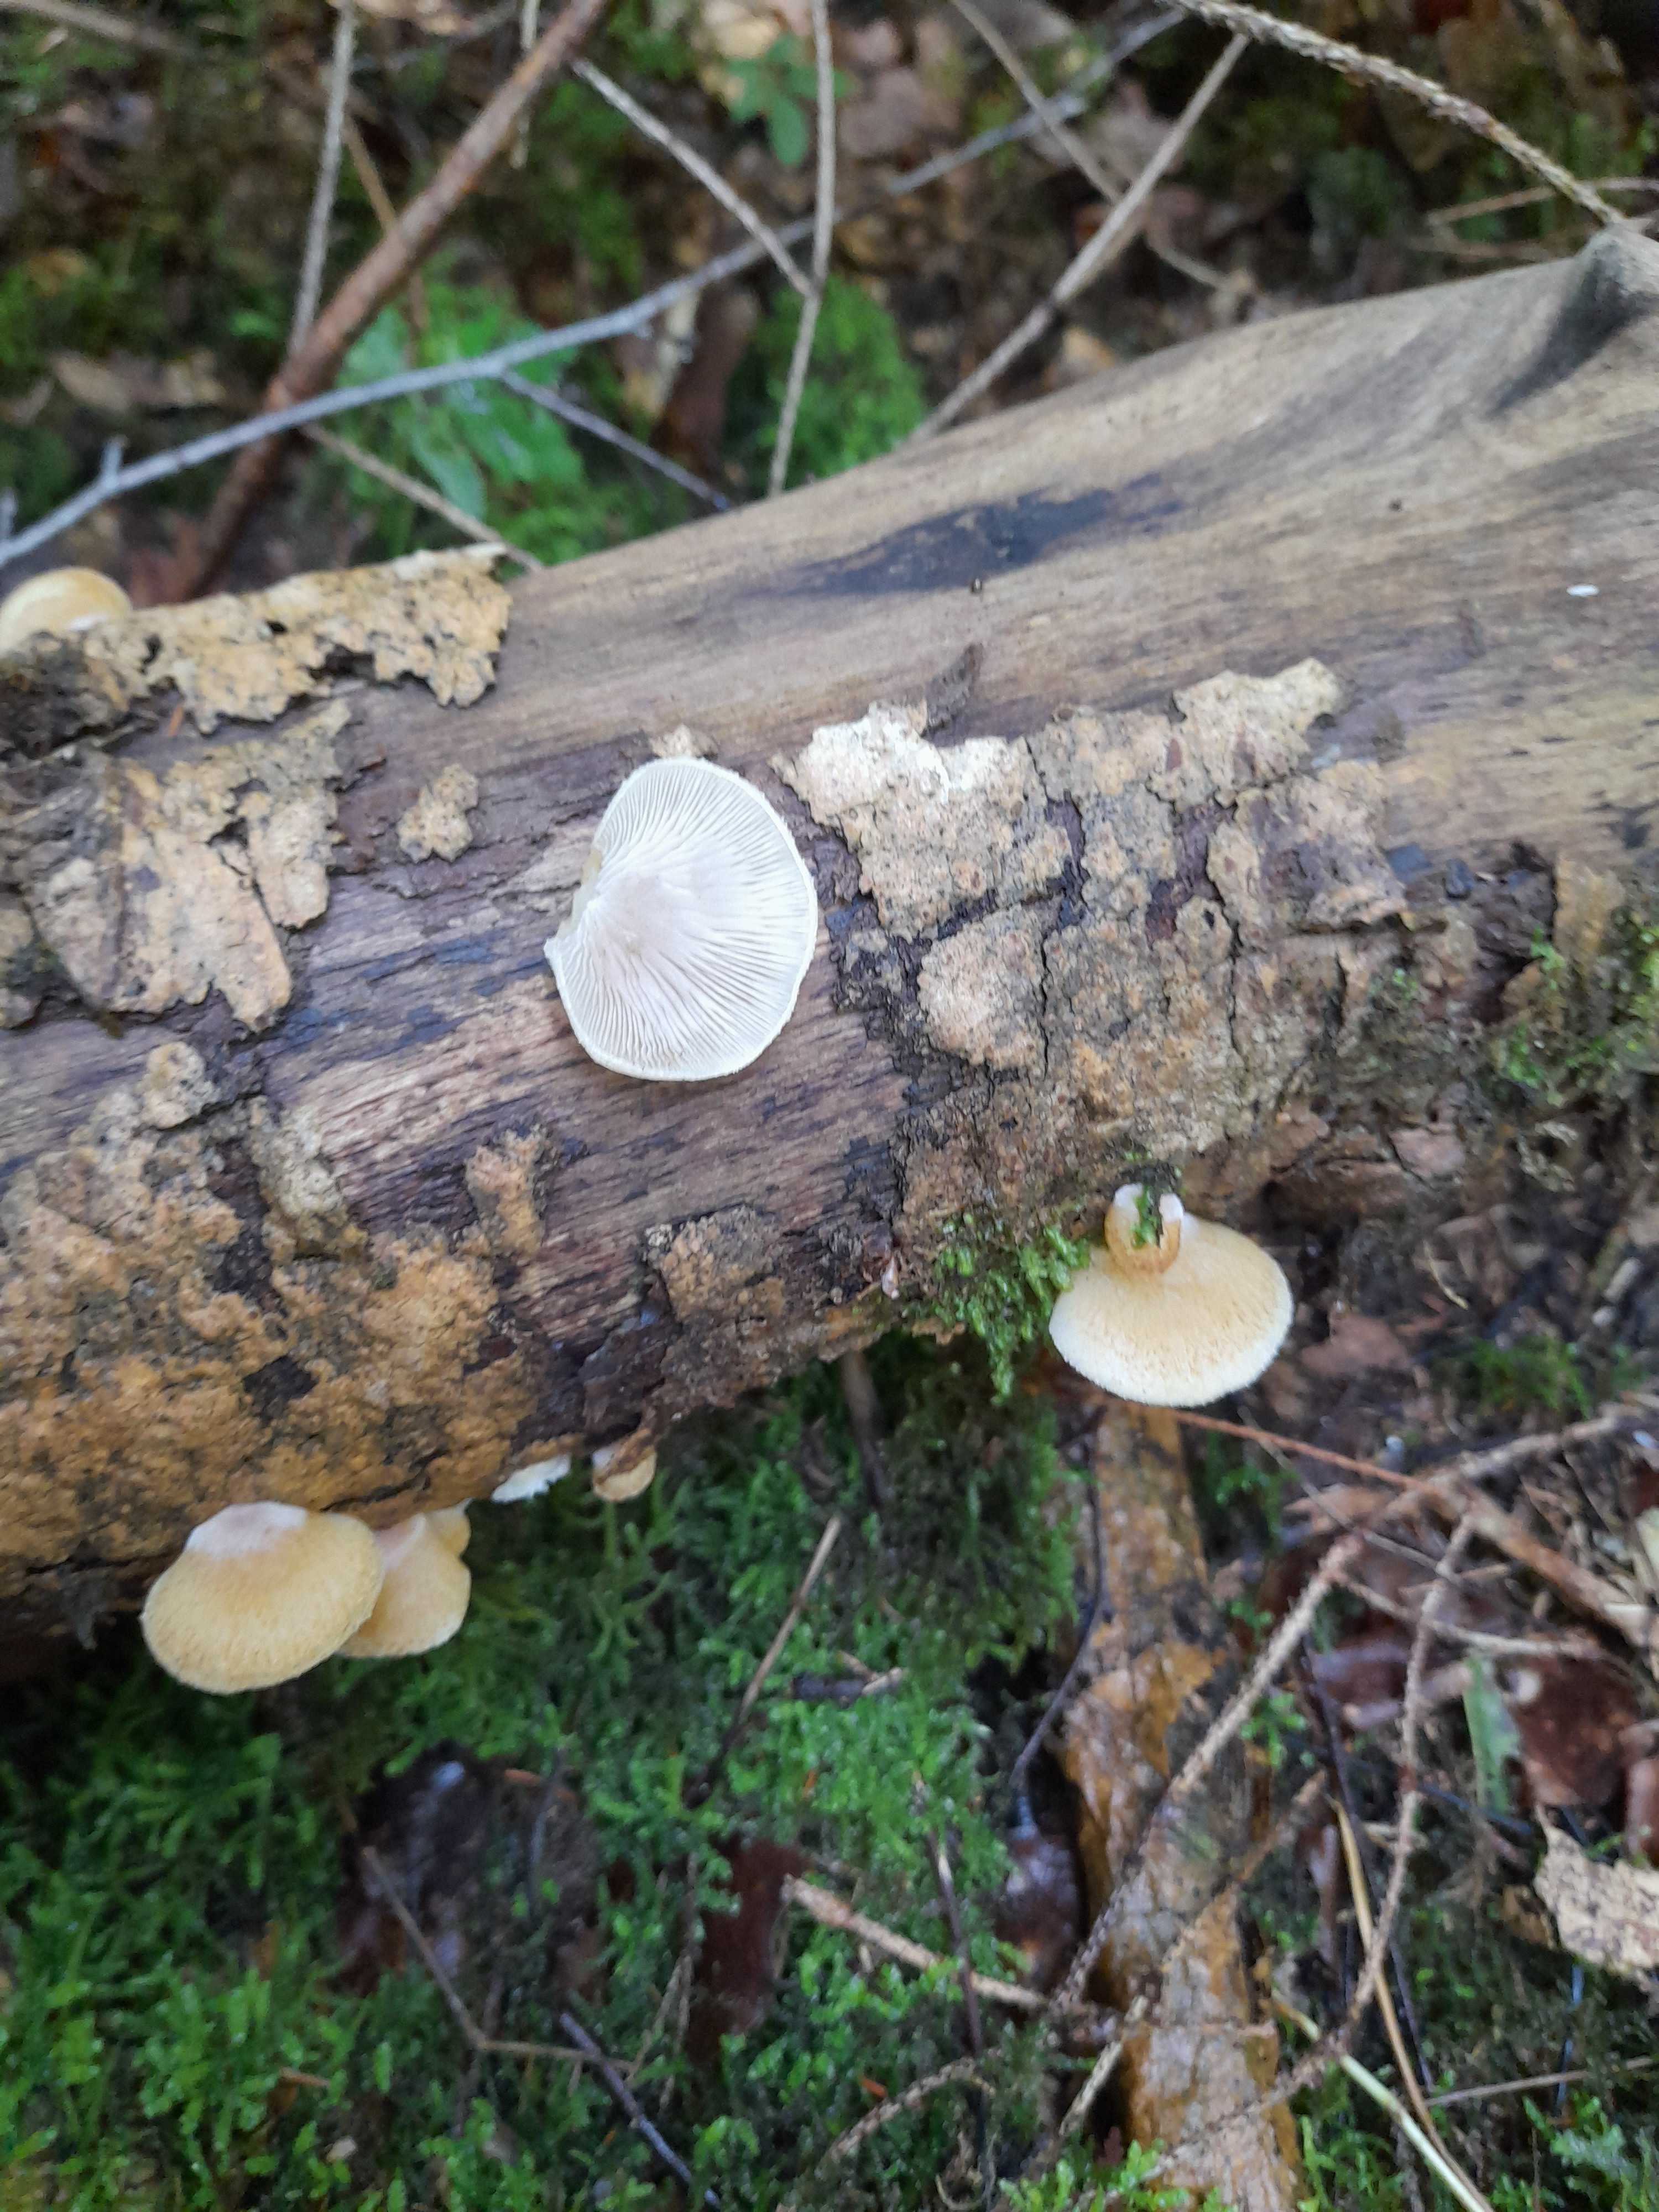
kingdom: Fungi
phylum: Basidiomycota
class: Agaricomycetes
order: Agaricales
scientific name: Agaricales
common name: champignonordenen
